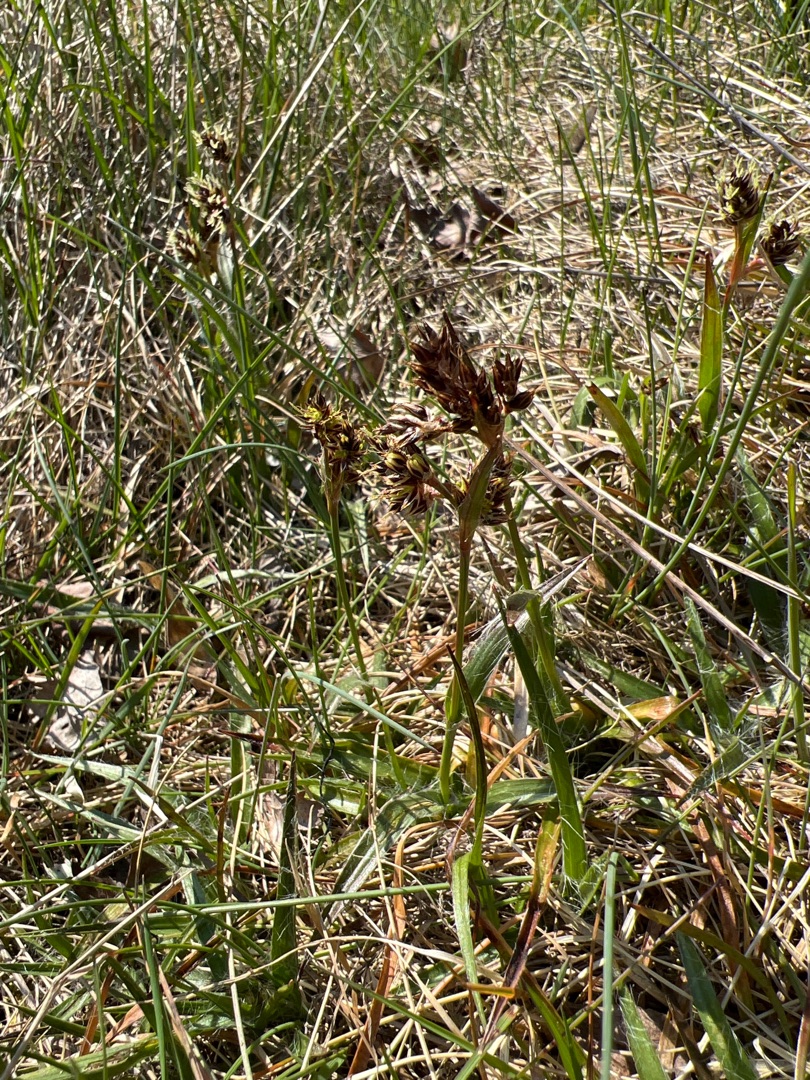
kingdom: Plantae
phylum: Tracheophyta
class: Liliopsida
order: Poales
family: Juncaceae
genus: Luzula
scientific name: Luzula campestris
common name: Mark-frytle
